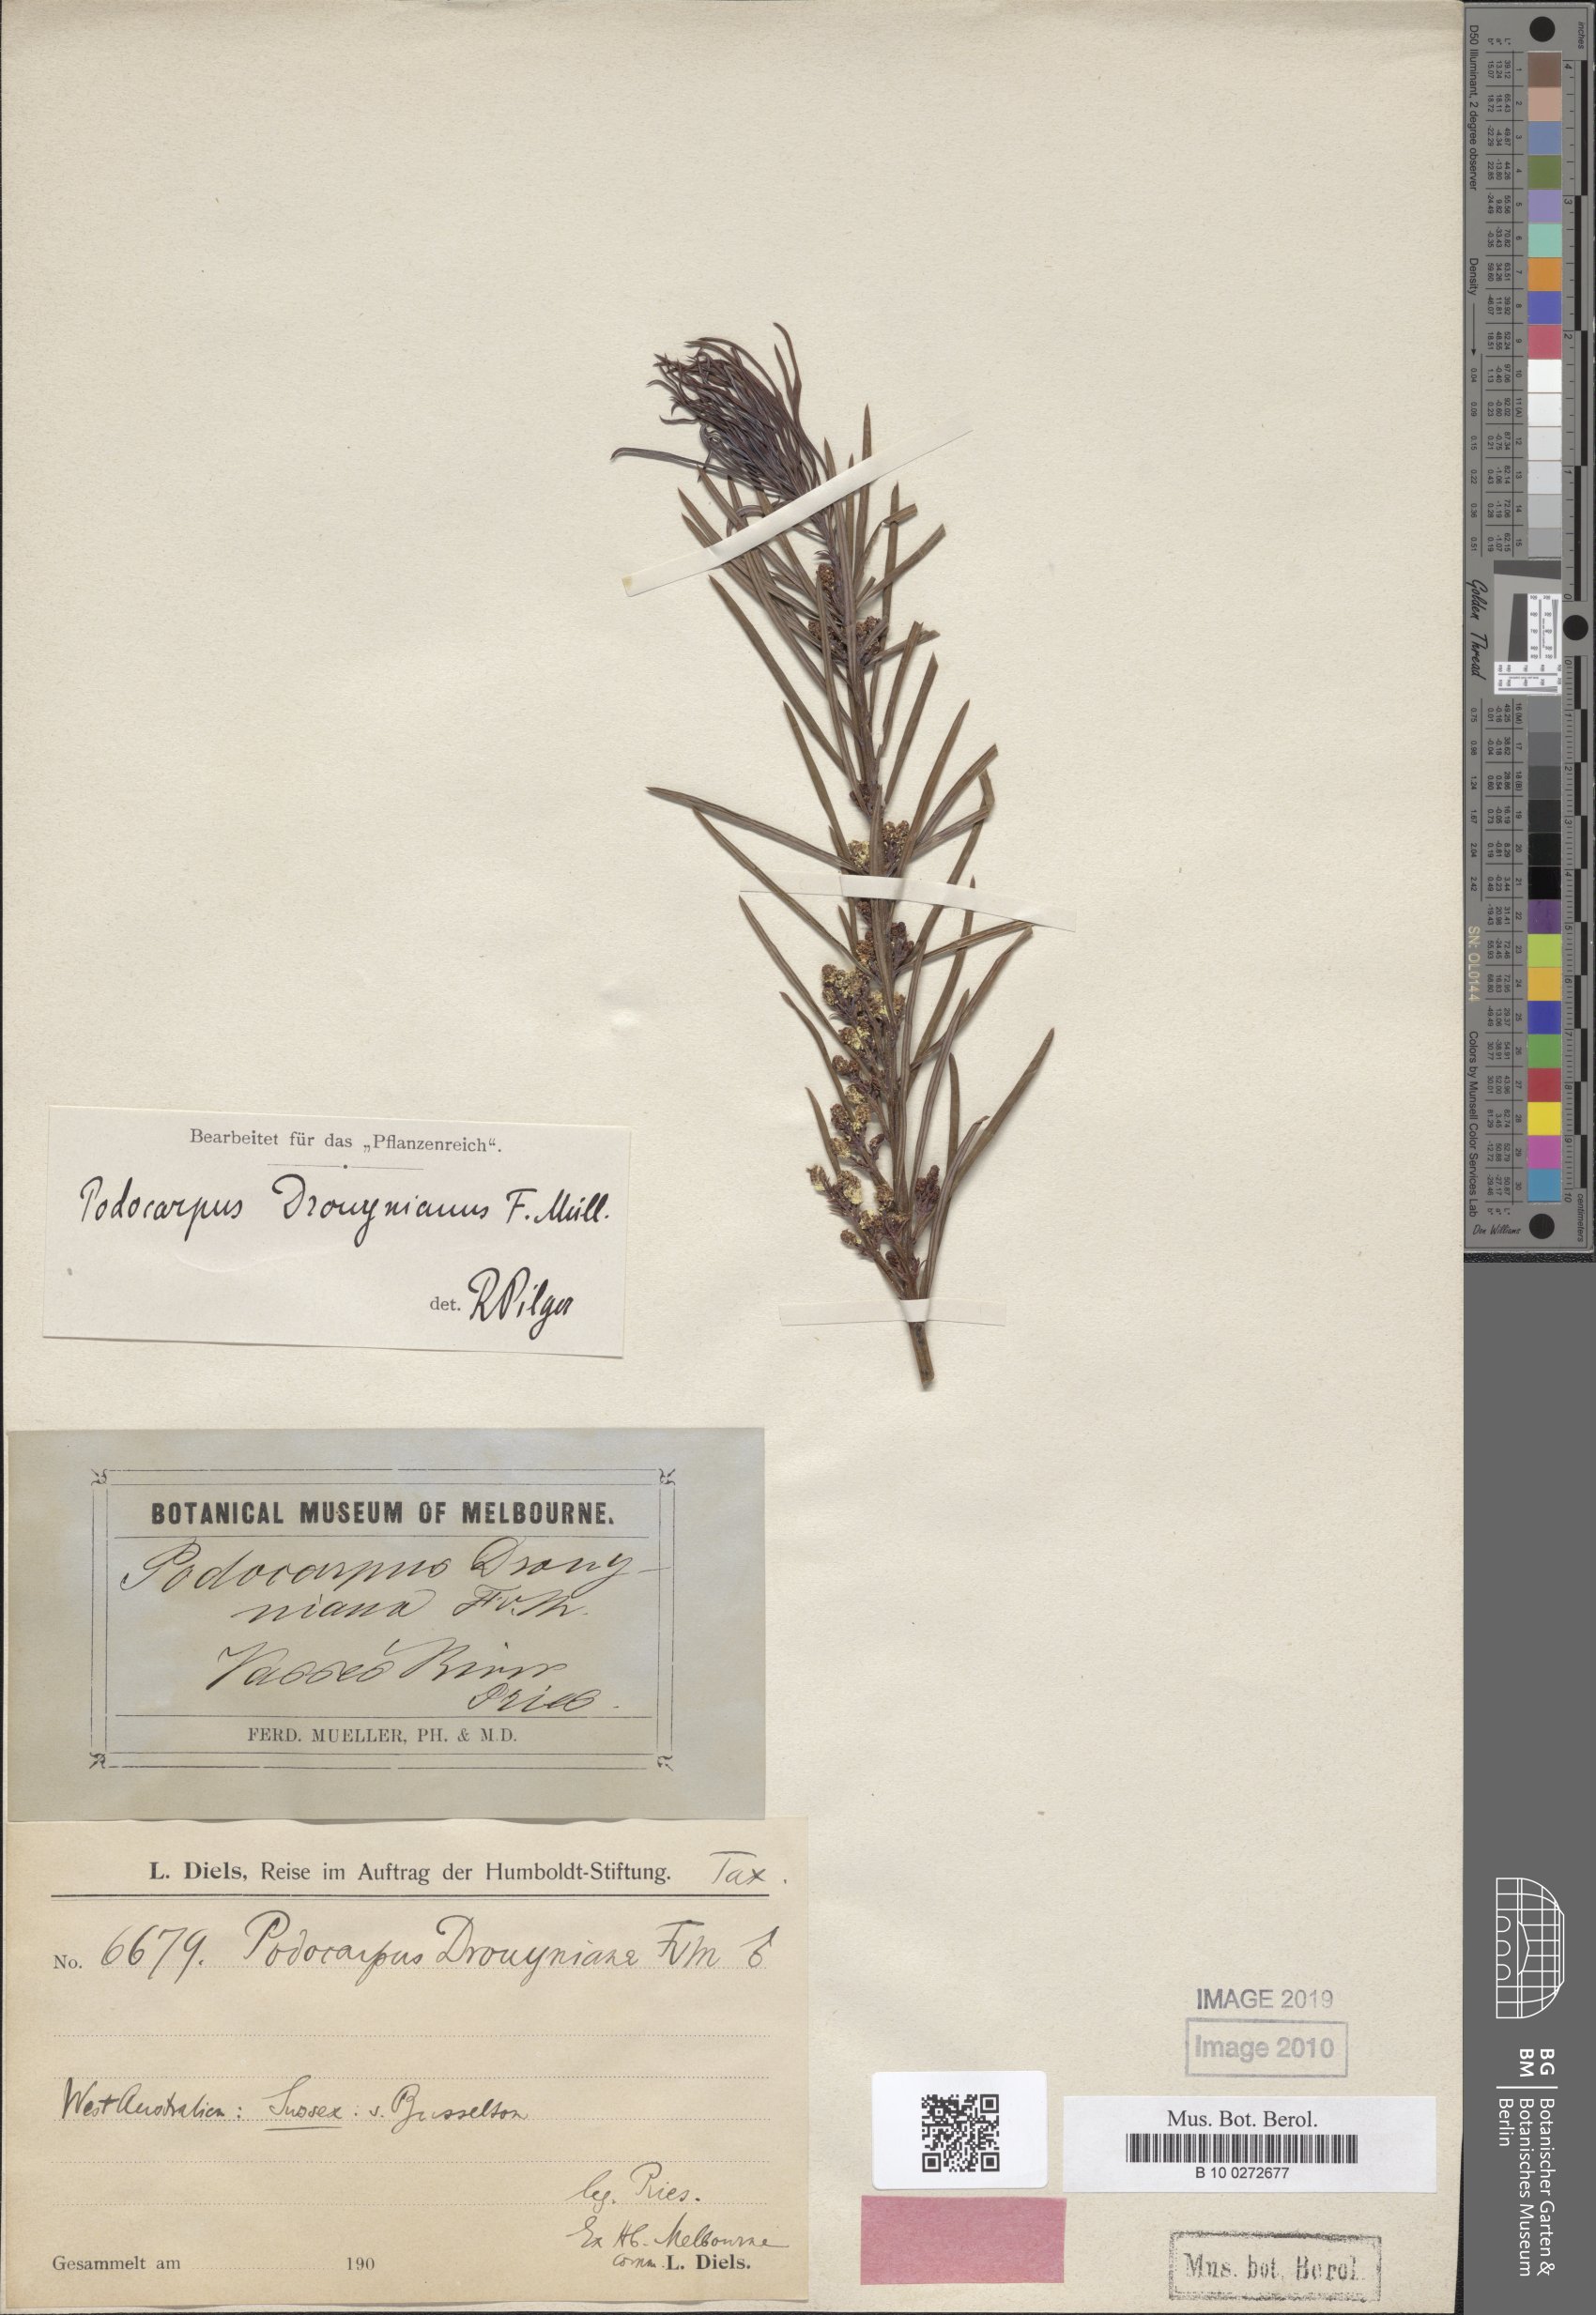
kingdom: Plantae
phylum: Tracheophyta
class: Pinopsida
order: Pinales
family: Podocarpaceae
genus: Podocarpus
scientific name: Podocarpus drouynianus
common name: Emu berry
